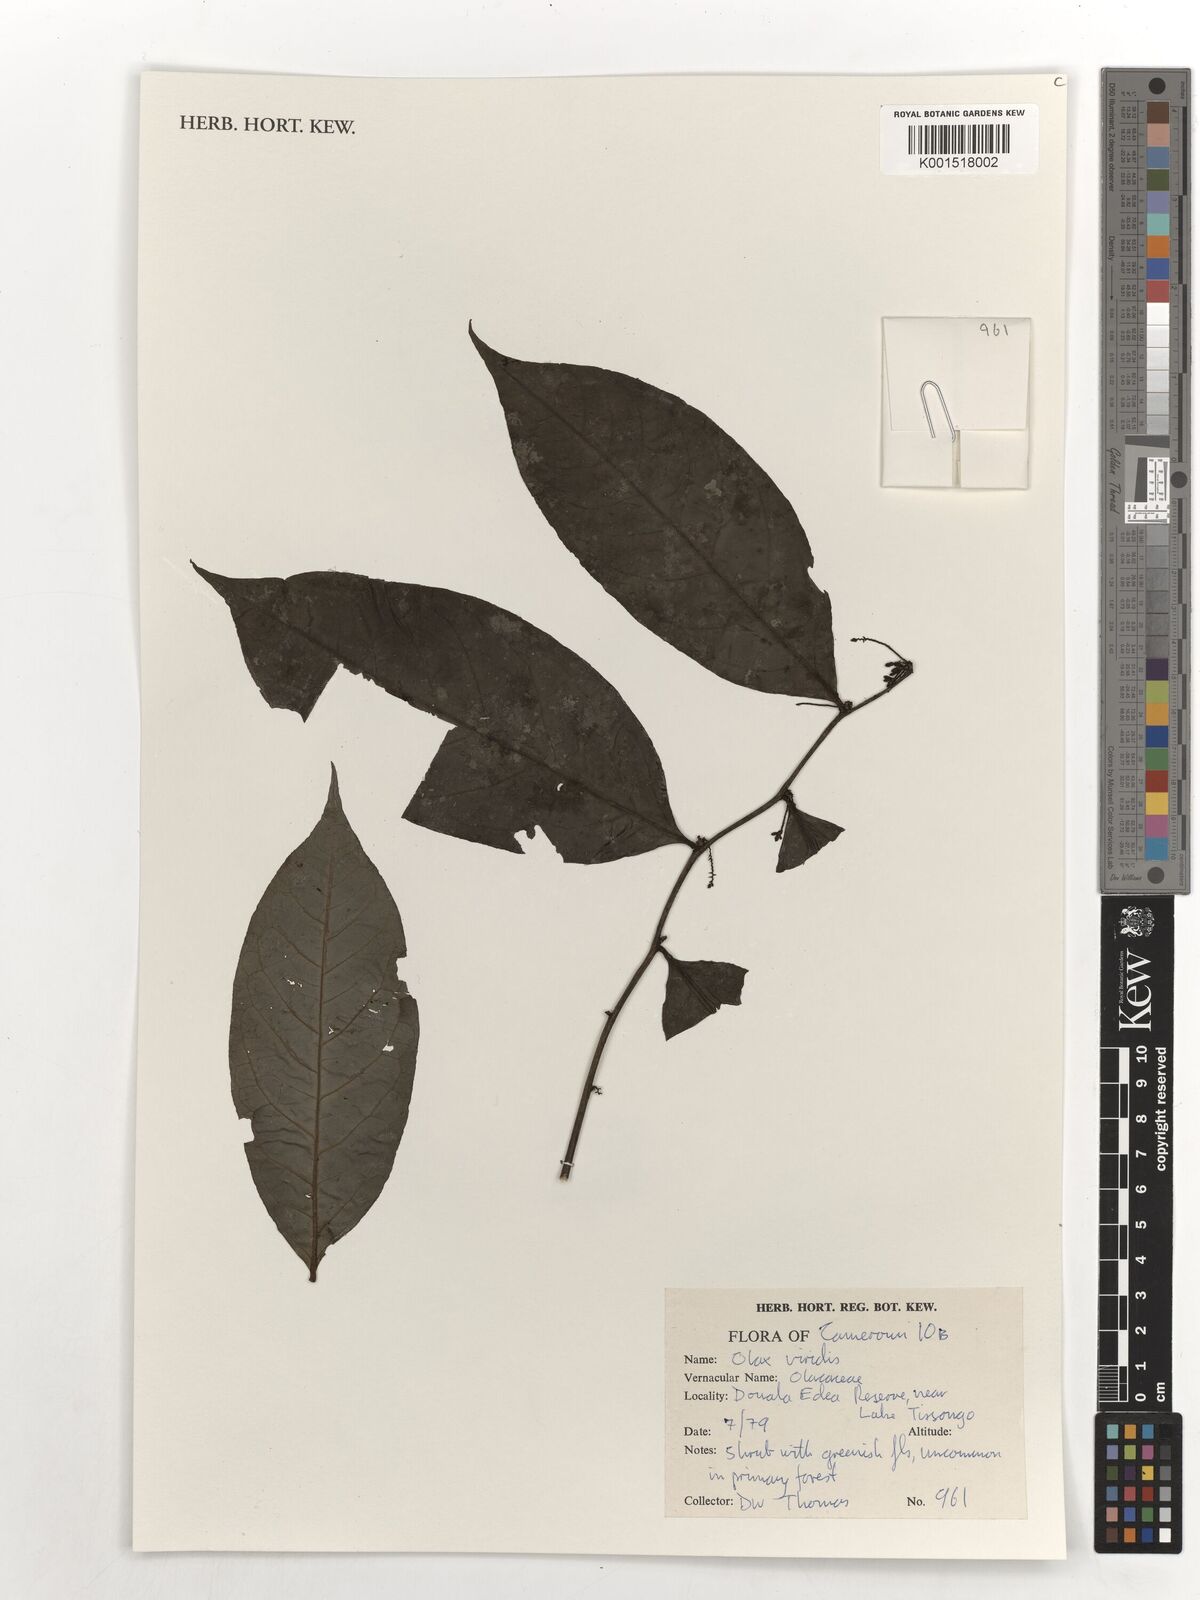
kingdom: Plantae
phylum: Tracheophyta
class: Magnoliopsida
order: Santalales
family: Olacaceae
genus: Olax
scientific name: Olax gambecola
